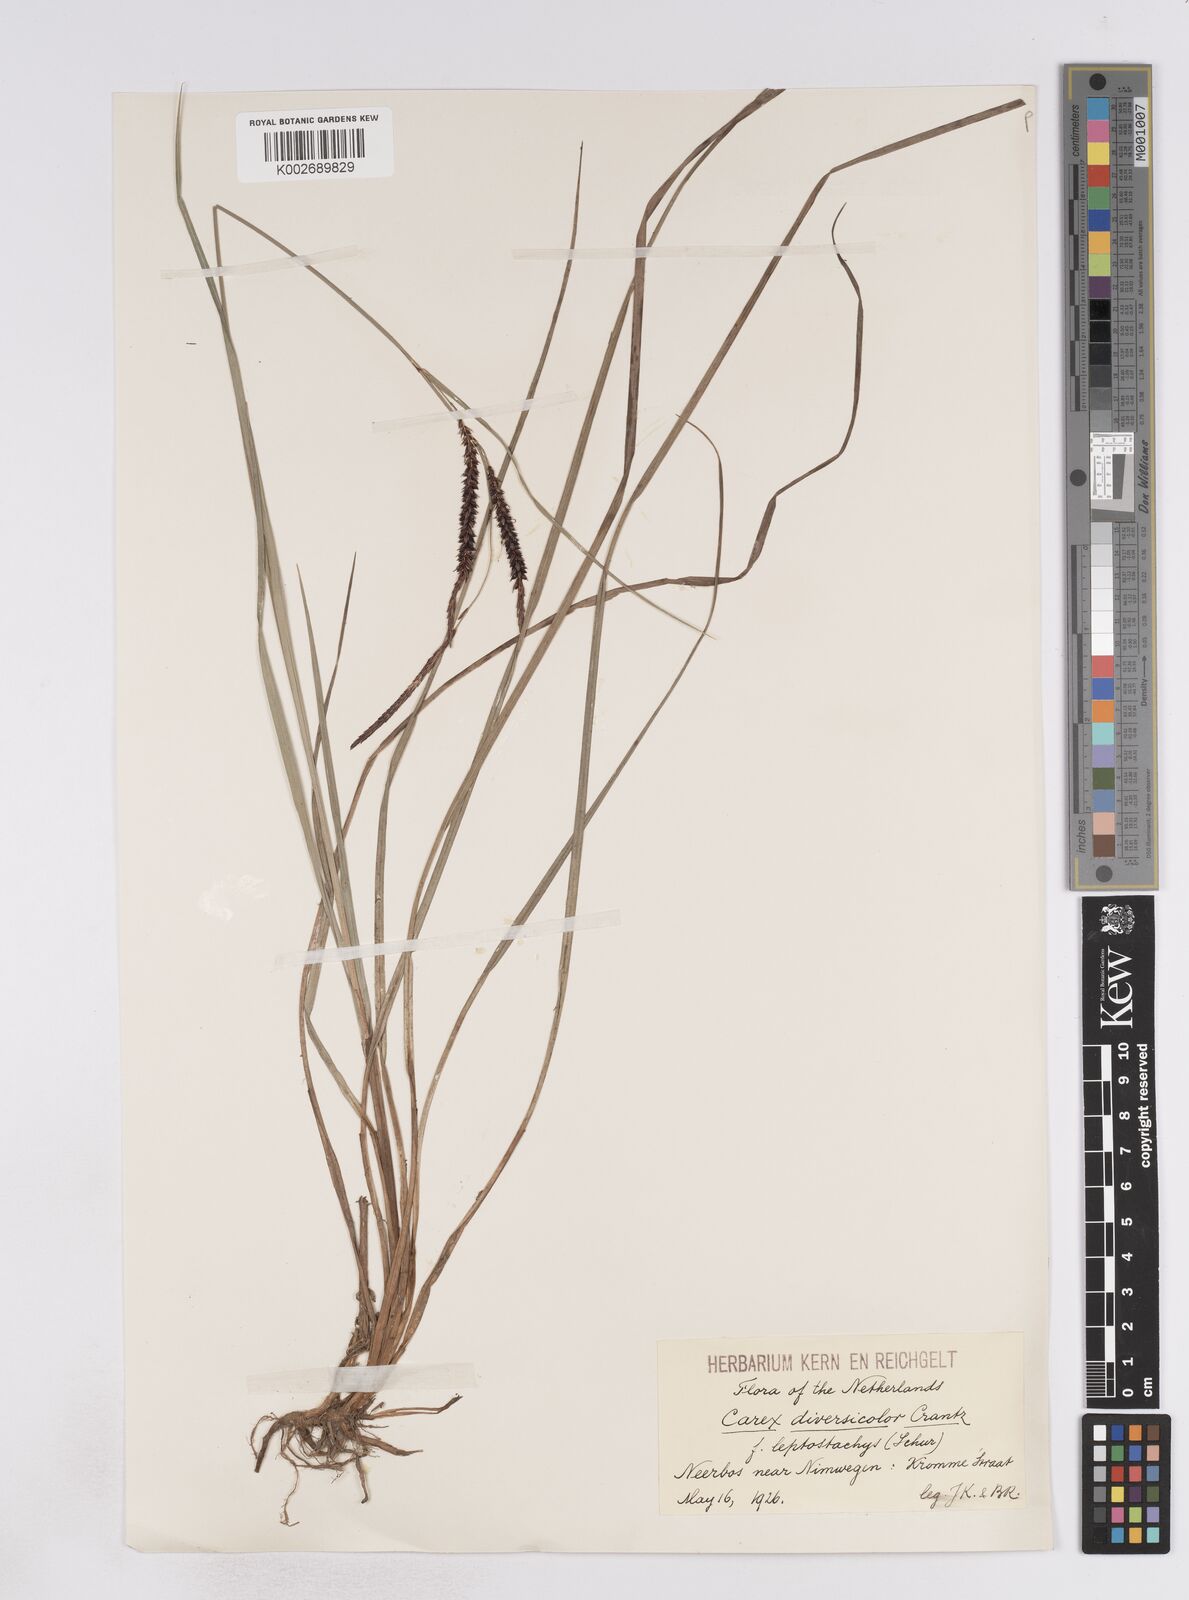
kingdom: Plantae
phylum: Tracheophyta
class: Liliopsida
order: Poales
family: Cyperaceae
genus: Carex
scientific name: Carex flacca
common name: Glaucous sedge
